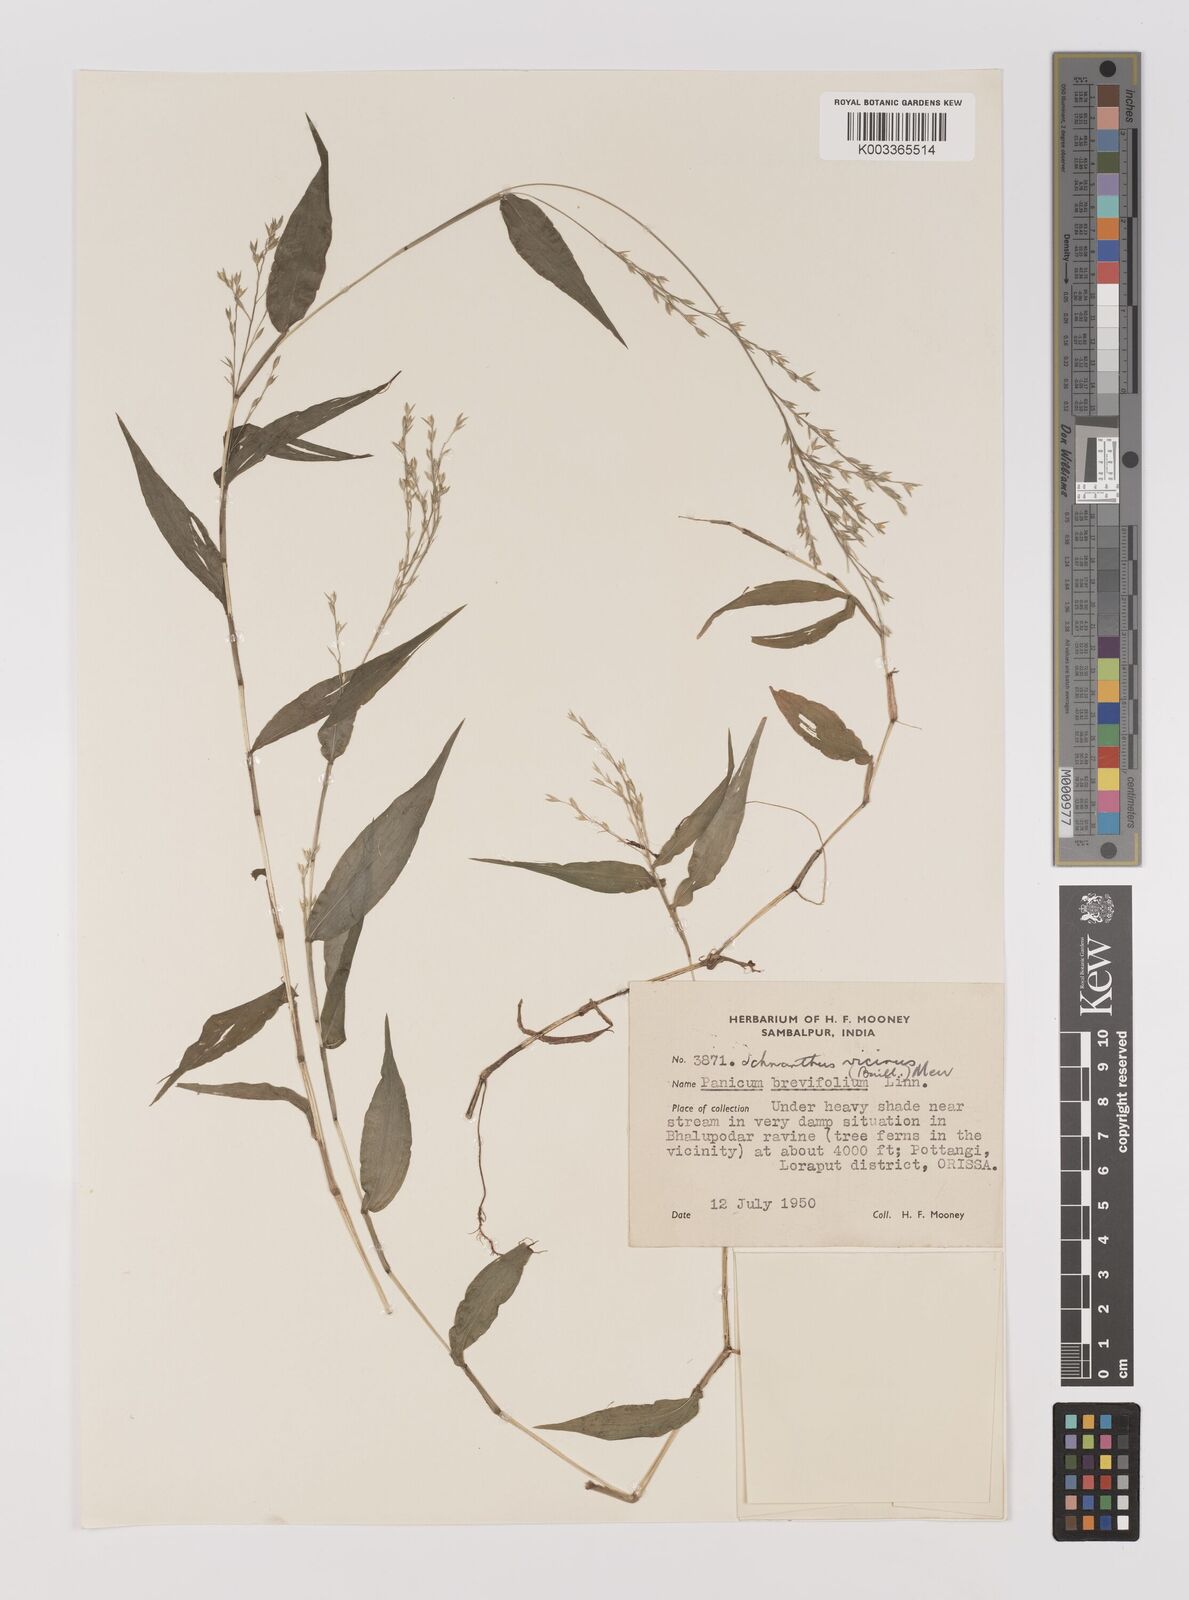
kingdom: Plantae
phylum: Tracheophyta
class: Liliopsida
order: Poales
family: Poaceae
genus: Ichnanthus
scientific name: Ichnanthus pallens
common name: Water grass
